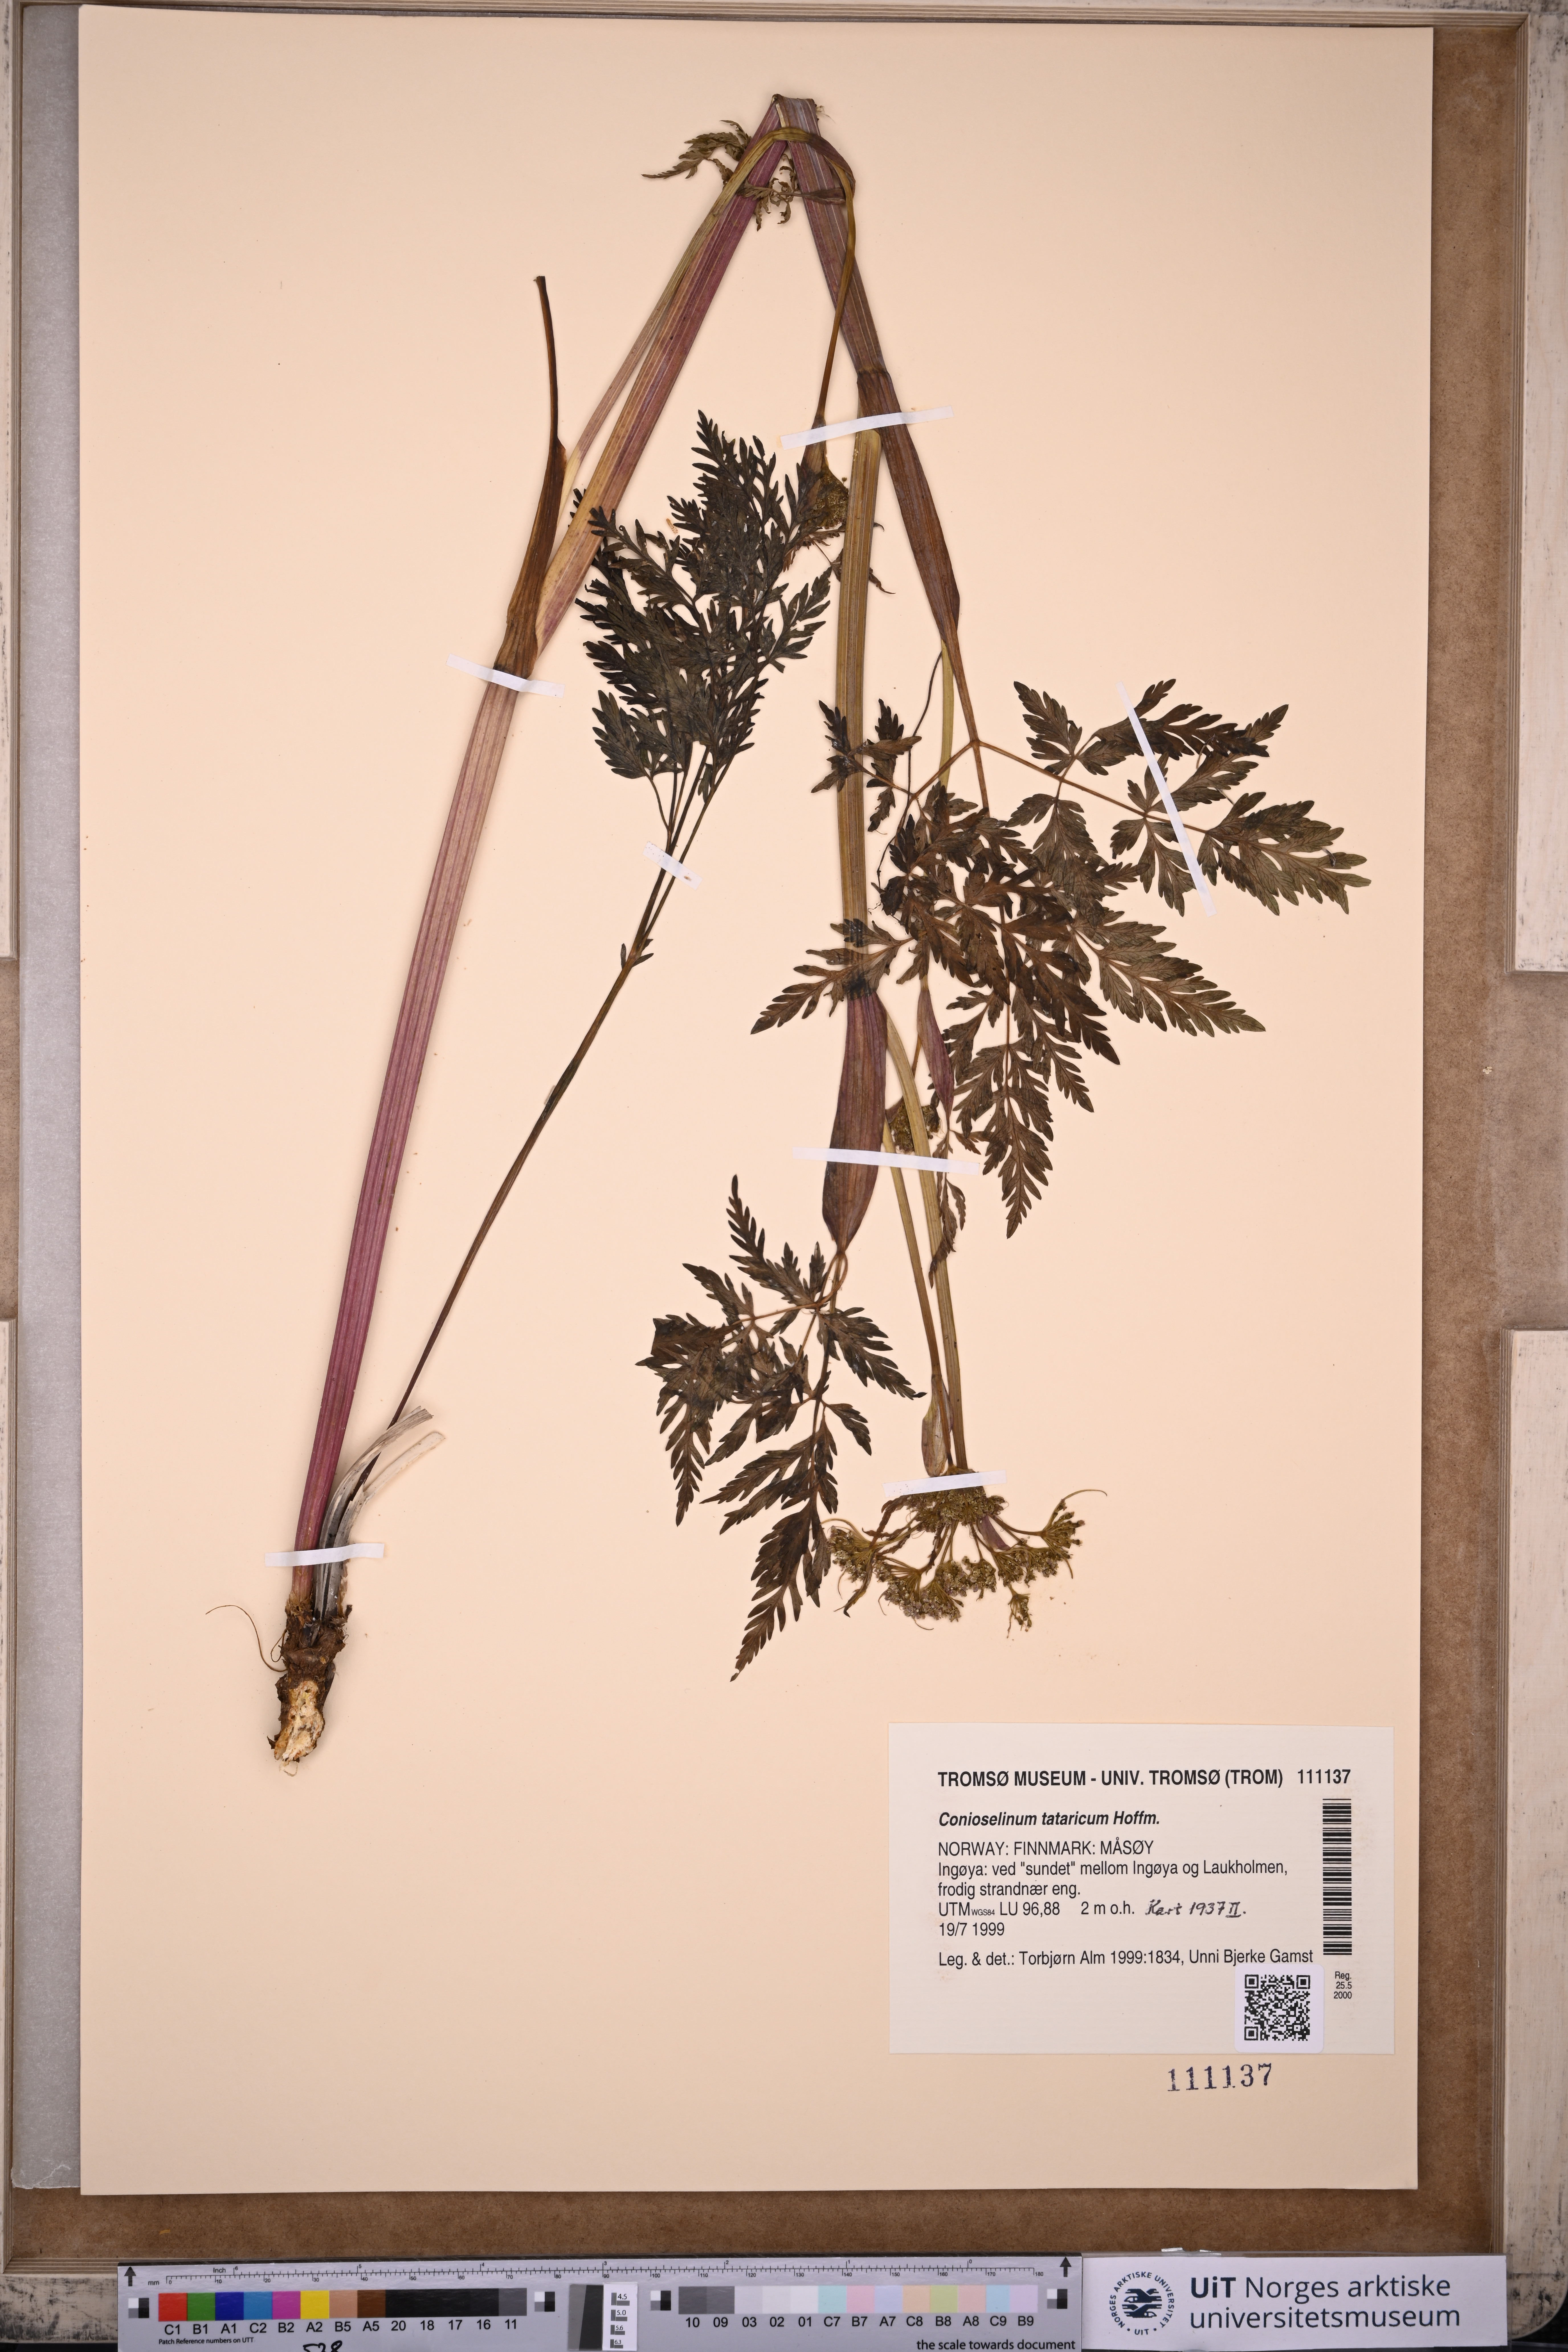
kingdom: Plantae
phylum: Tracheophyta
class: Magnoliopsida
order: Apiales
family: Apiaceae
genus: Seseli
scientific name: Seseli condensatum
